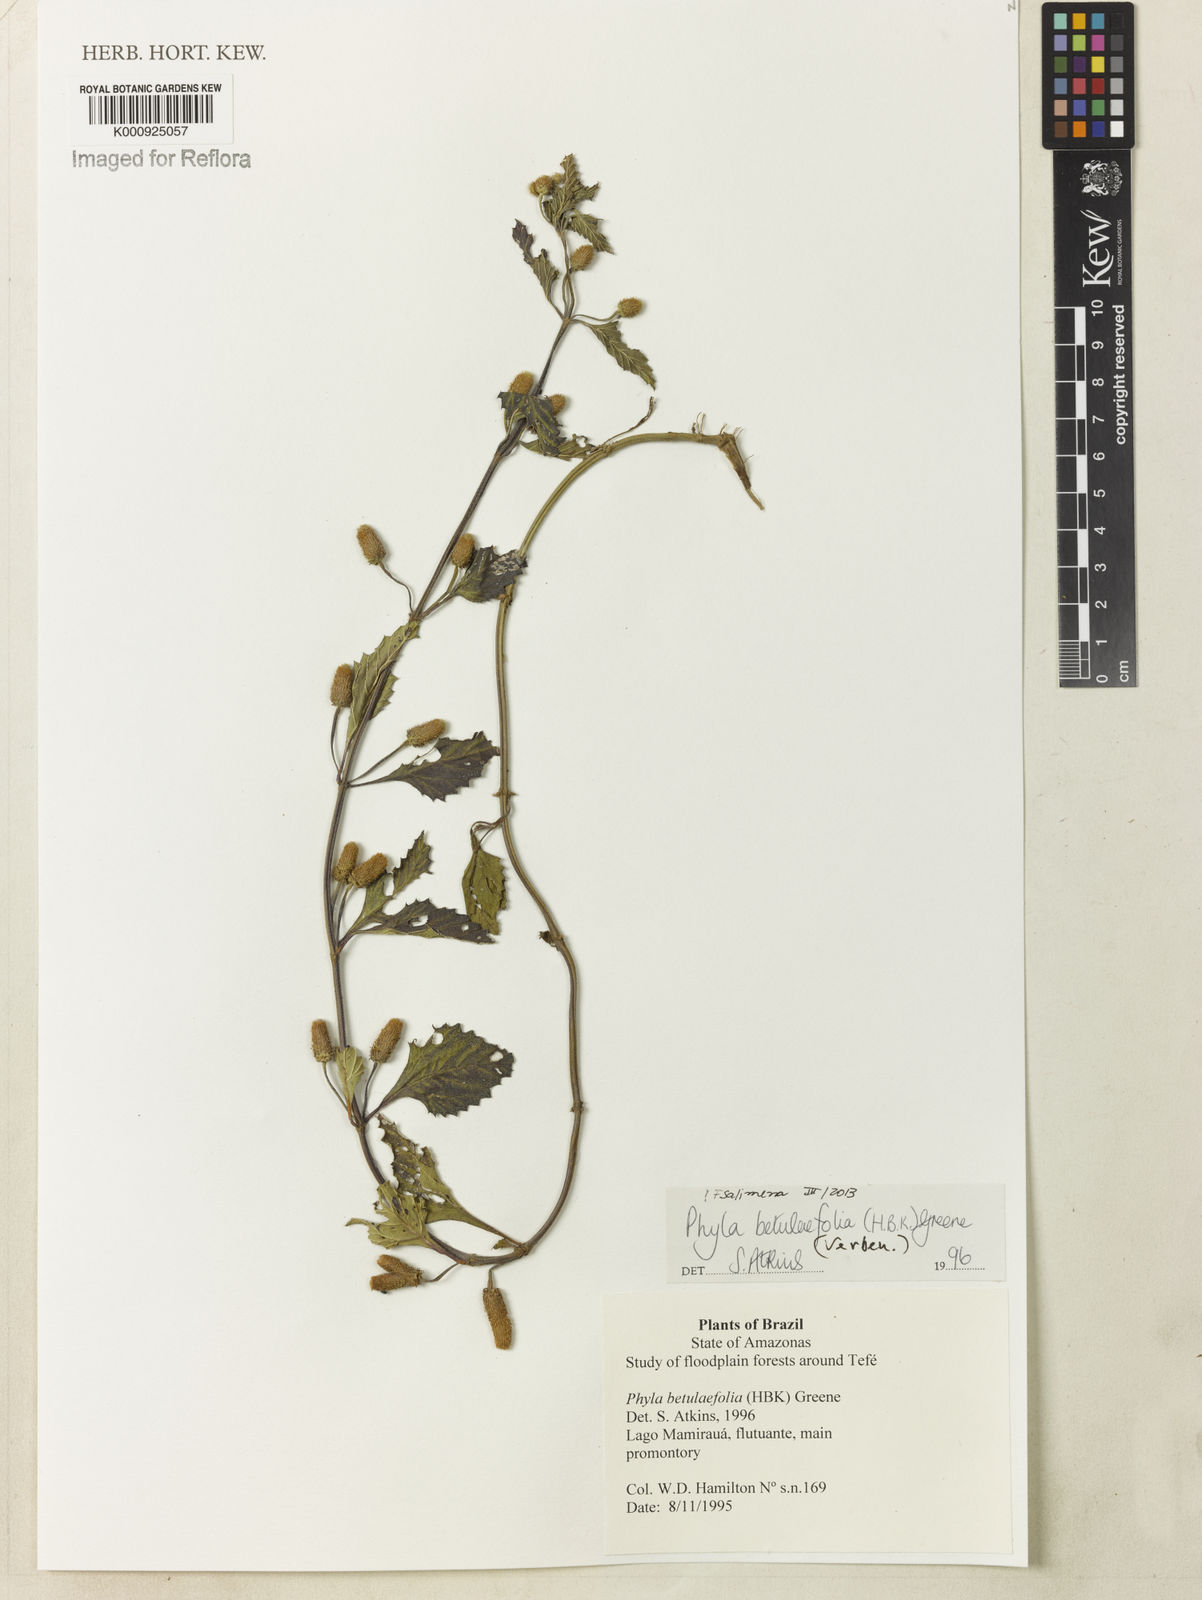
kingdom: Plantae
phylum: Tracheophyta
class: Magnoliopsida
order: Lamiales
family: Verbenaceae
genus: Phyla
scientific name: Phyla betulifolia
